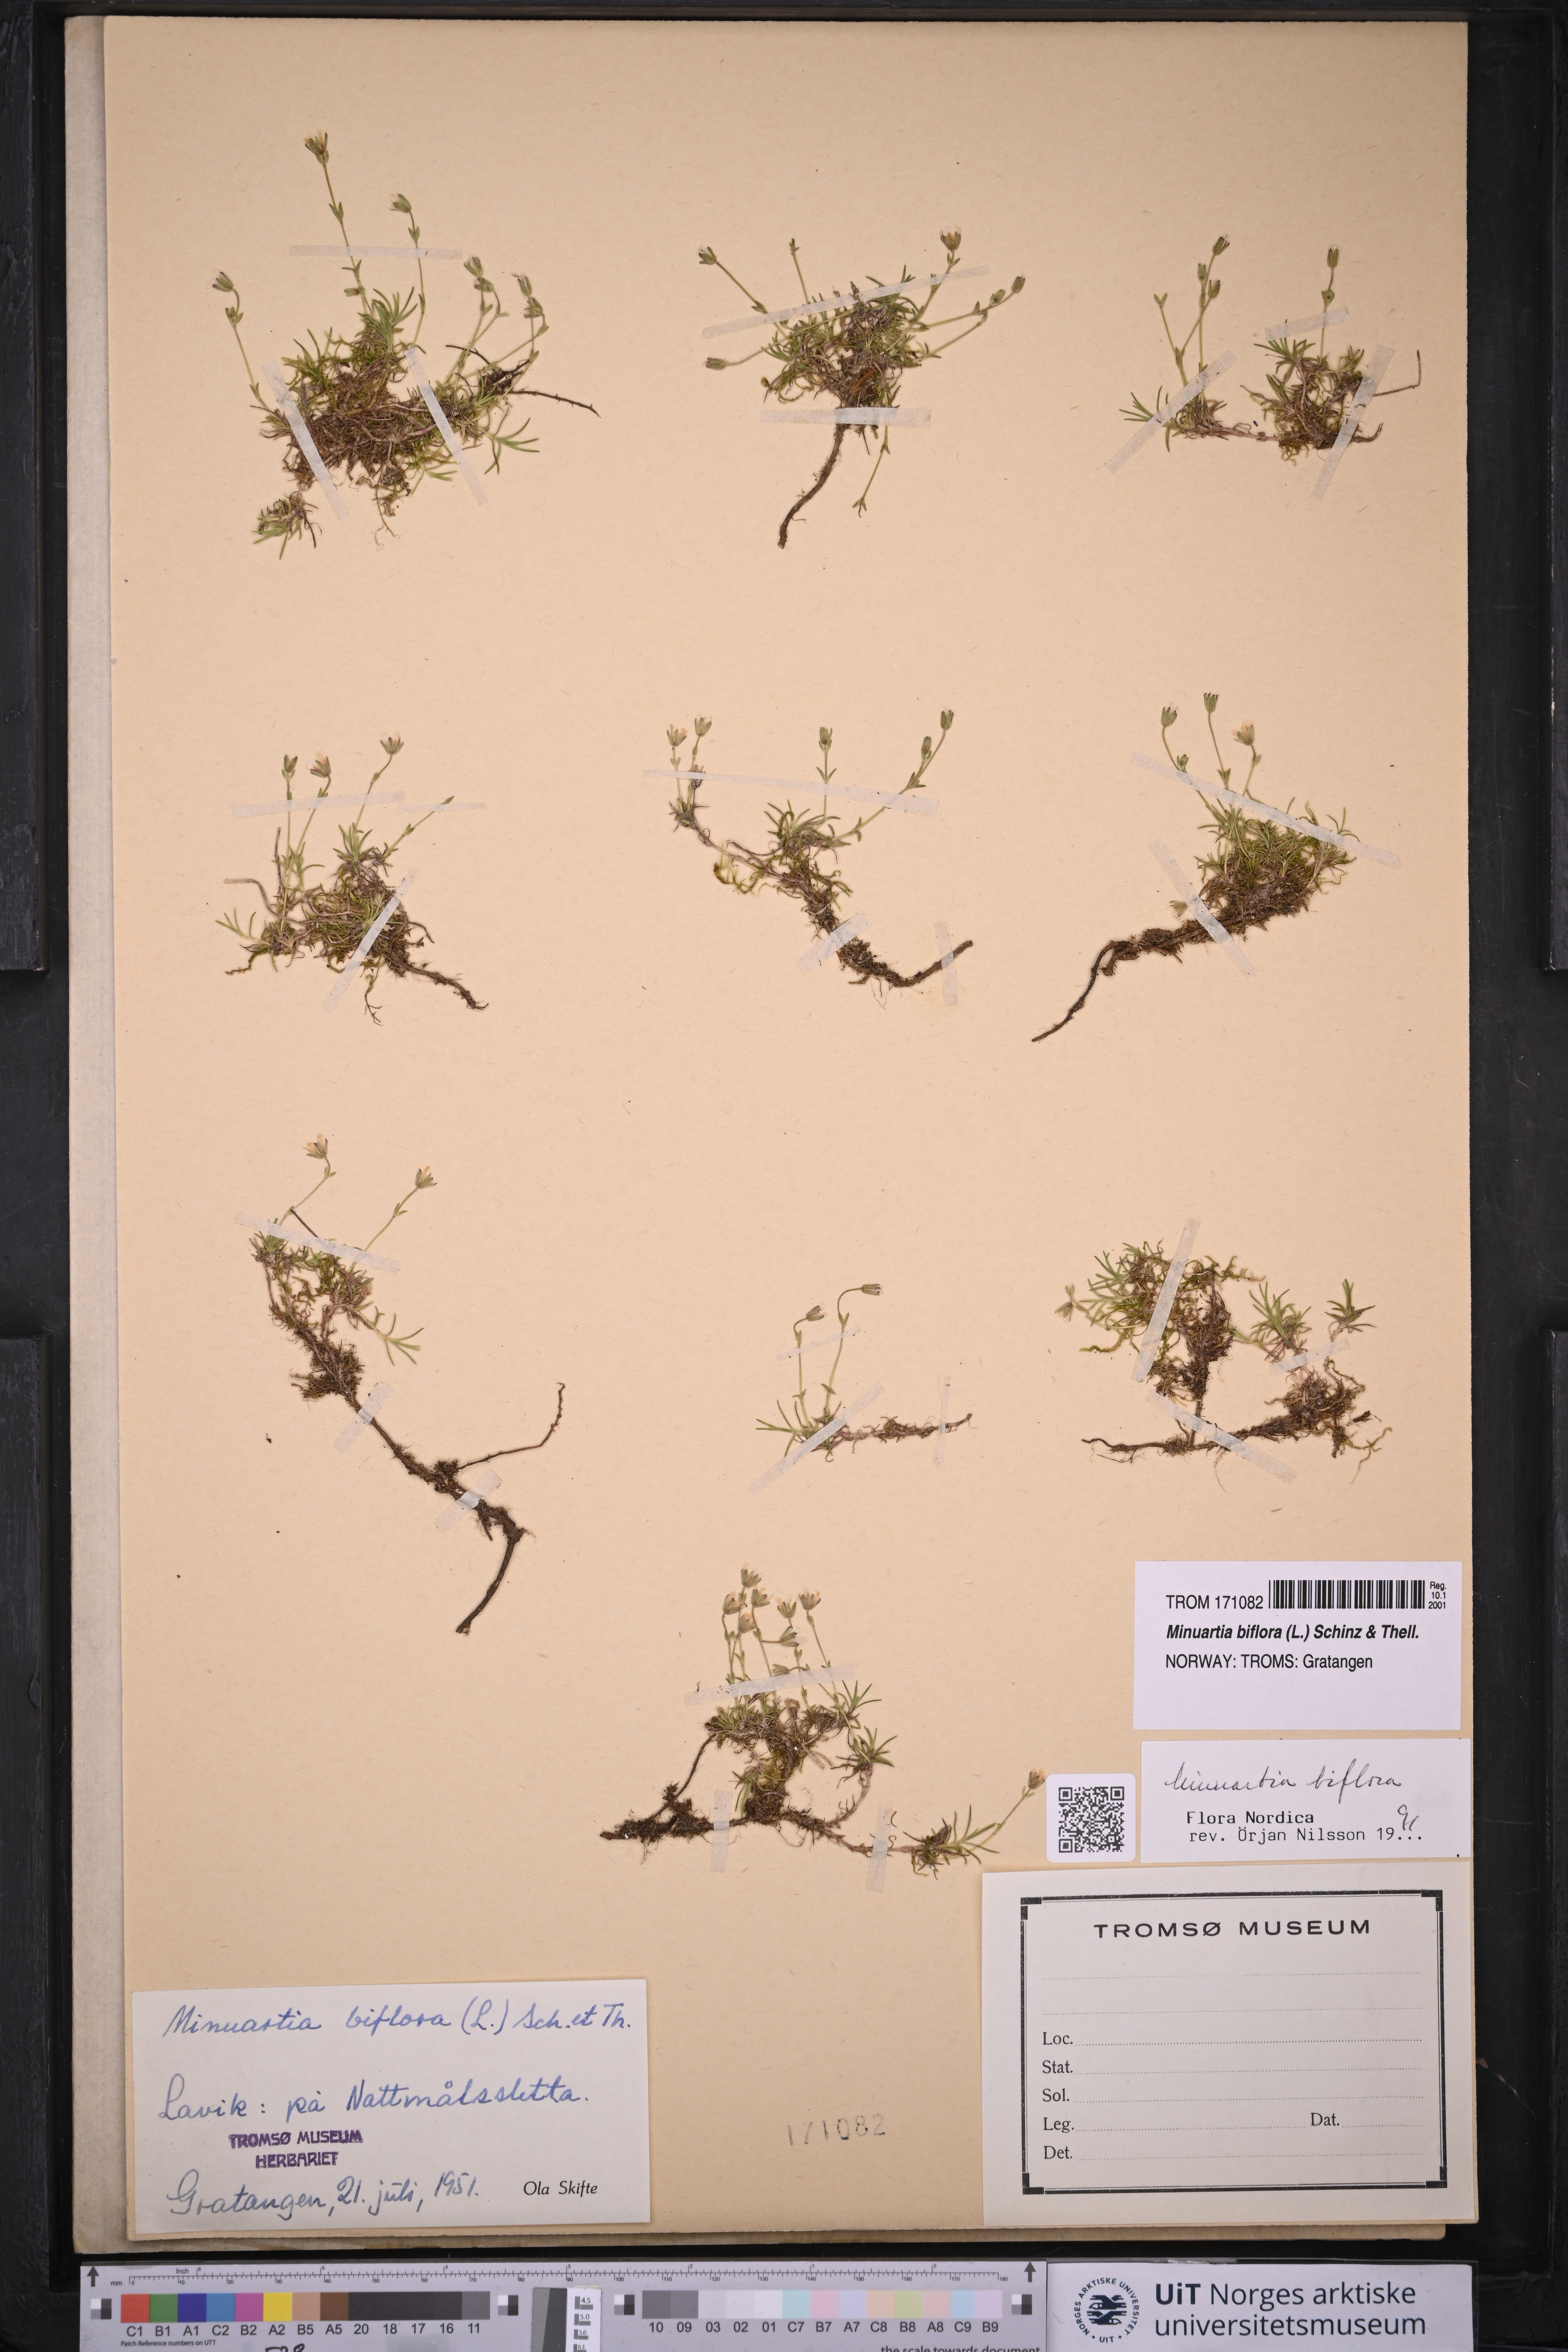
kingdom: Plantae
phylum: Tracheophyta
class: Magnoliopsida
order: Caryophyllales
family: Caryophyllaceae
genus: Cherleria
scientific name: Cherleria biflora
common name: Mountain sandwort
